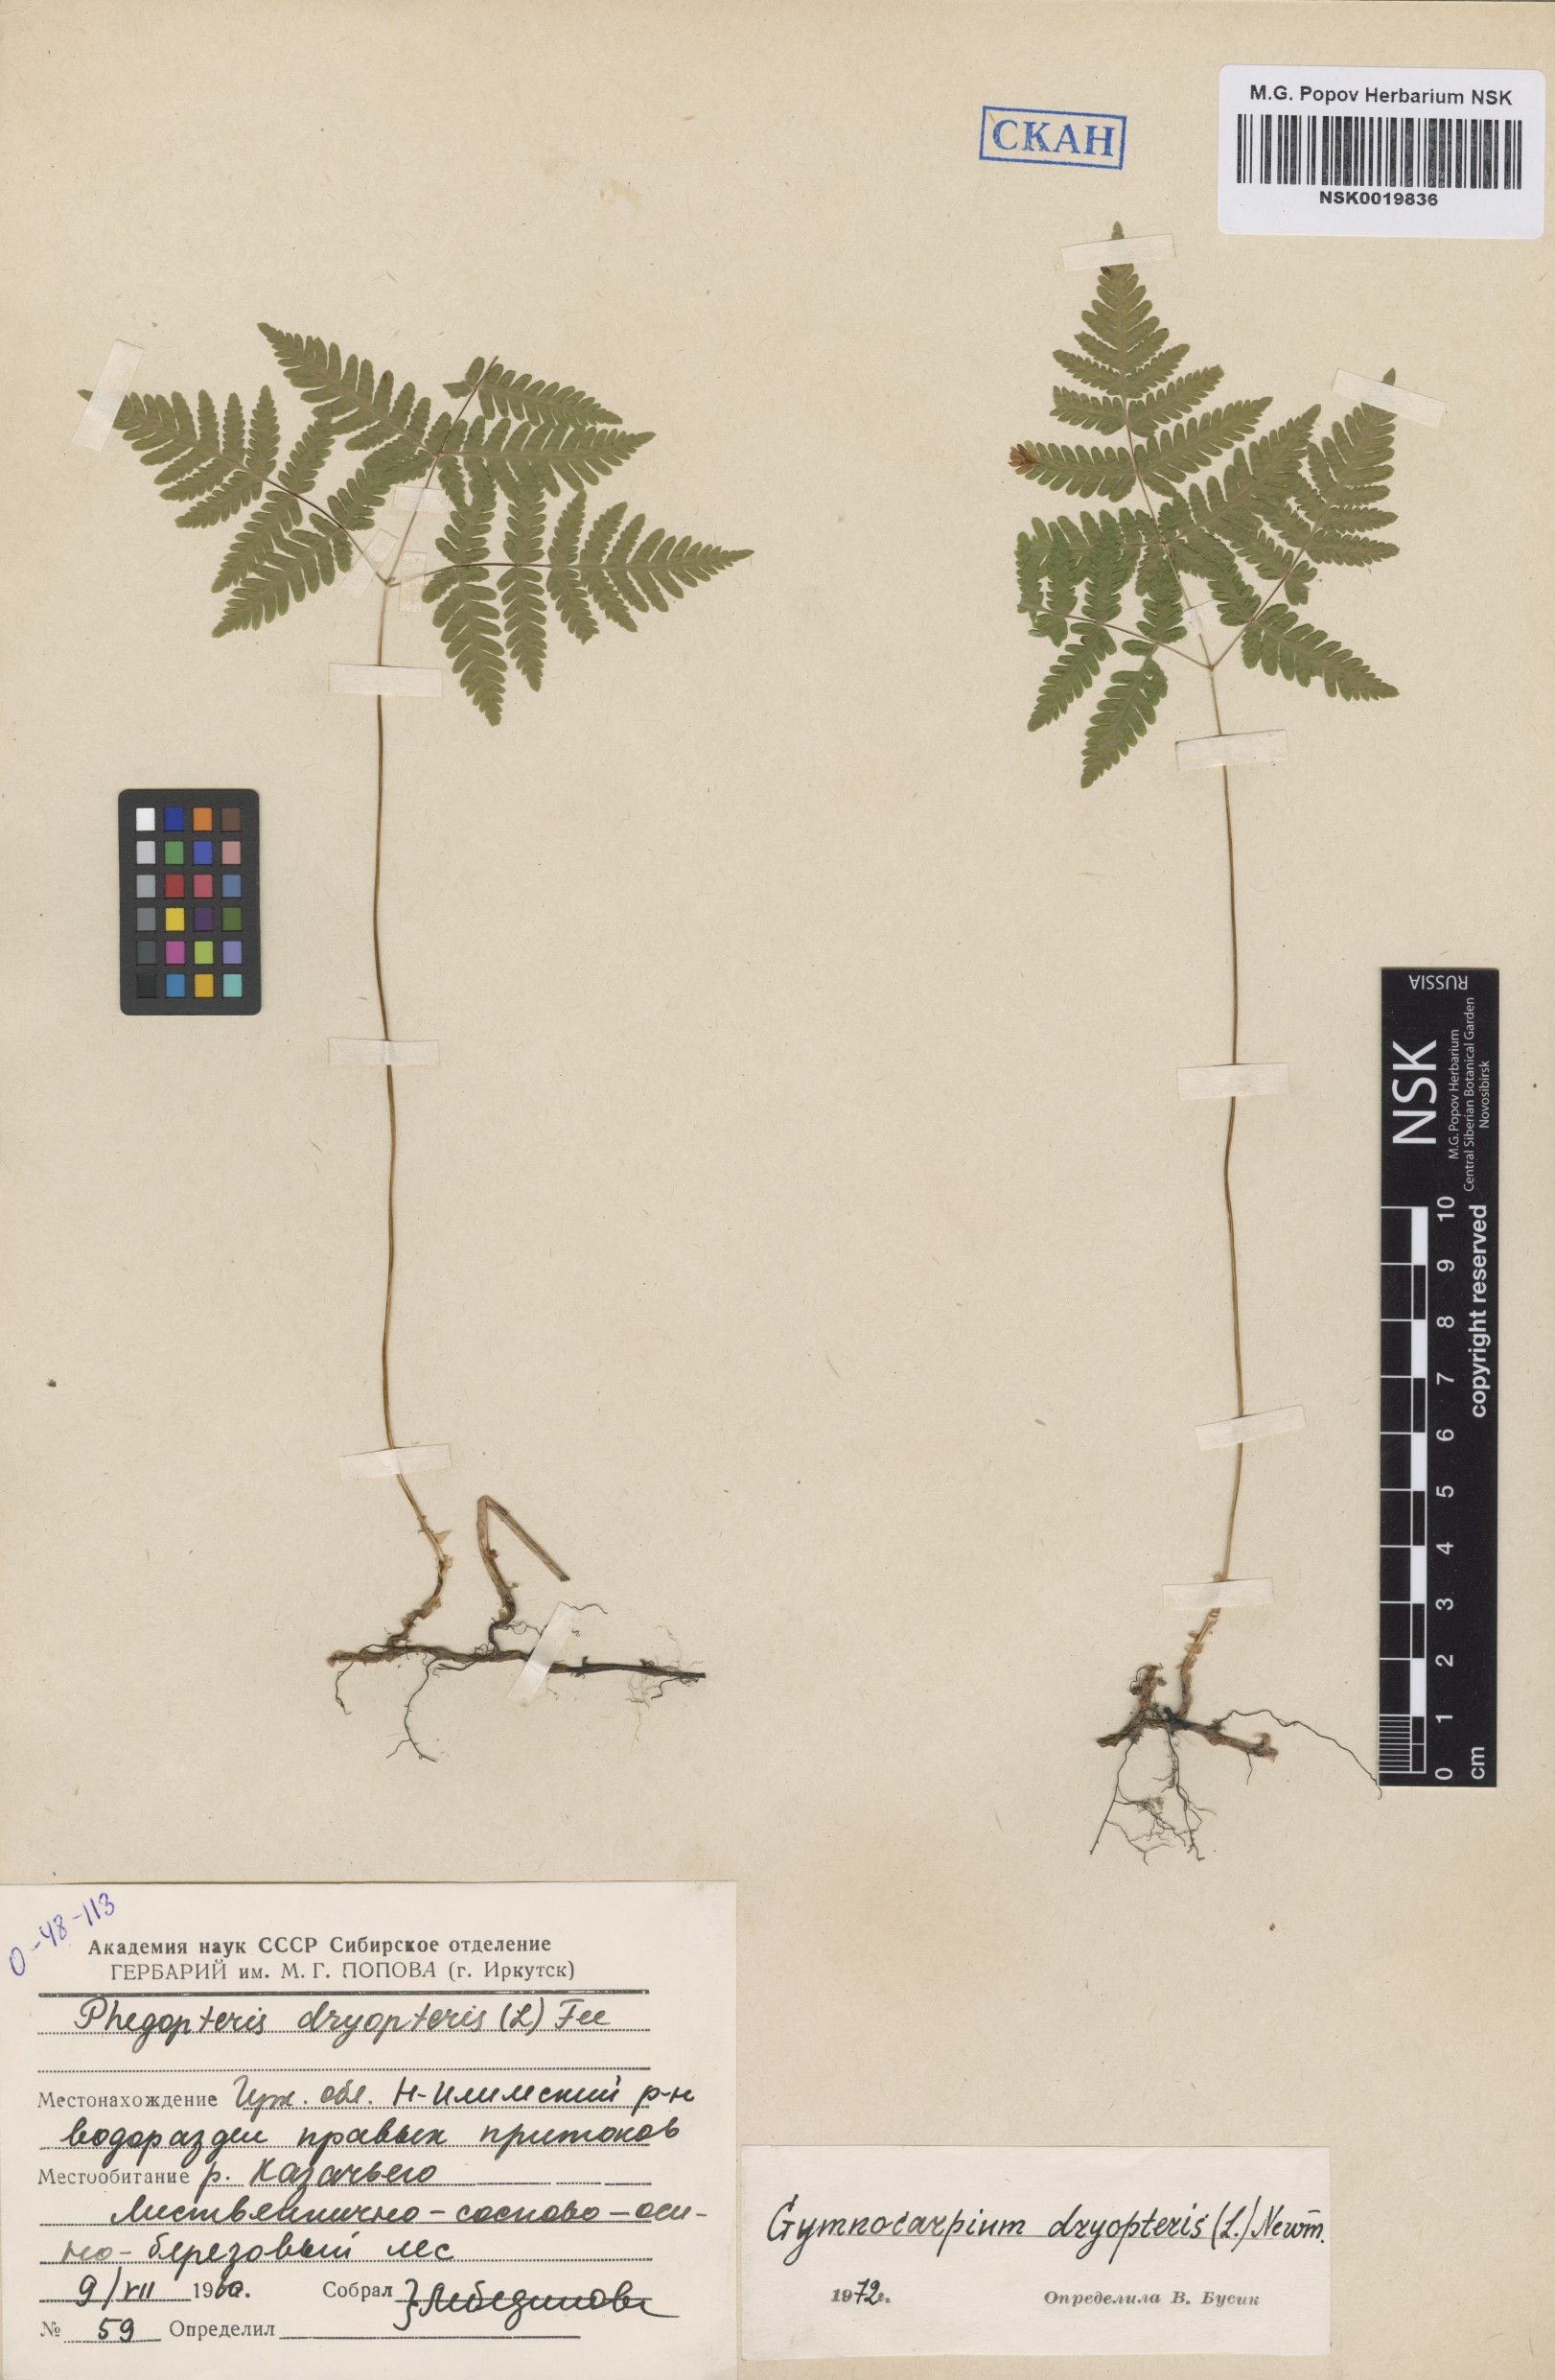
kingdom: Plantae
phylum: Tracheophyta
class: Polypodiopsida
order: Polypodiales
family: Cystopteridaceae
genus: Gymnocarpium
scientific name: Gymnocarpium dryopteris
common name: Oak fern
